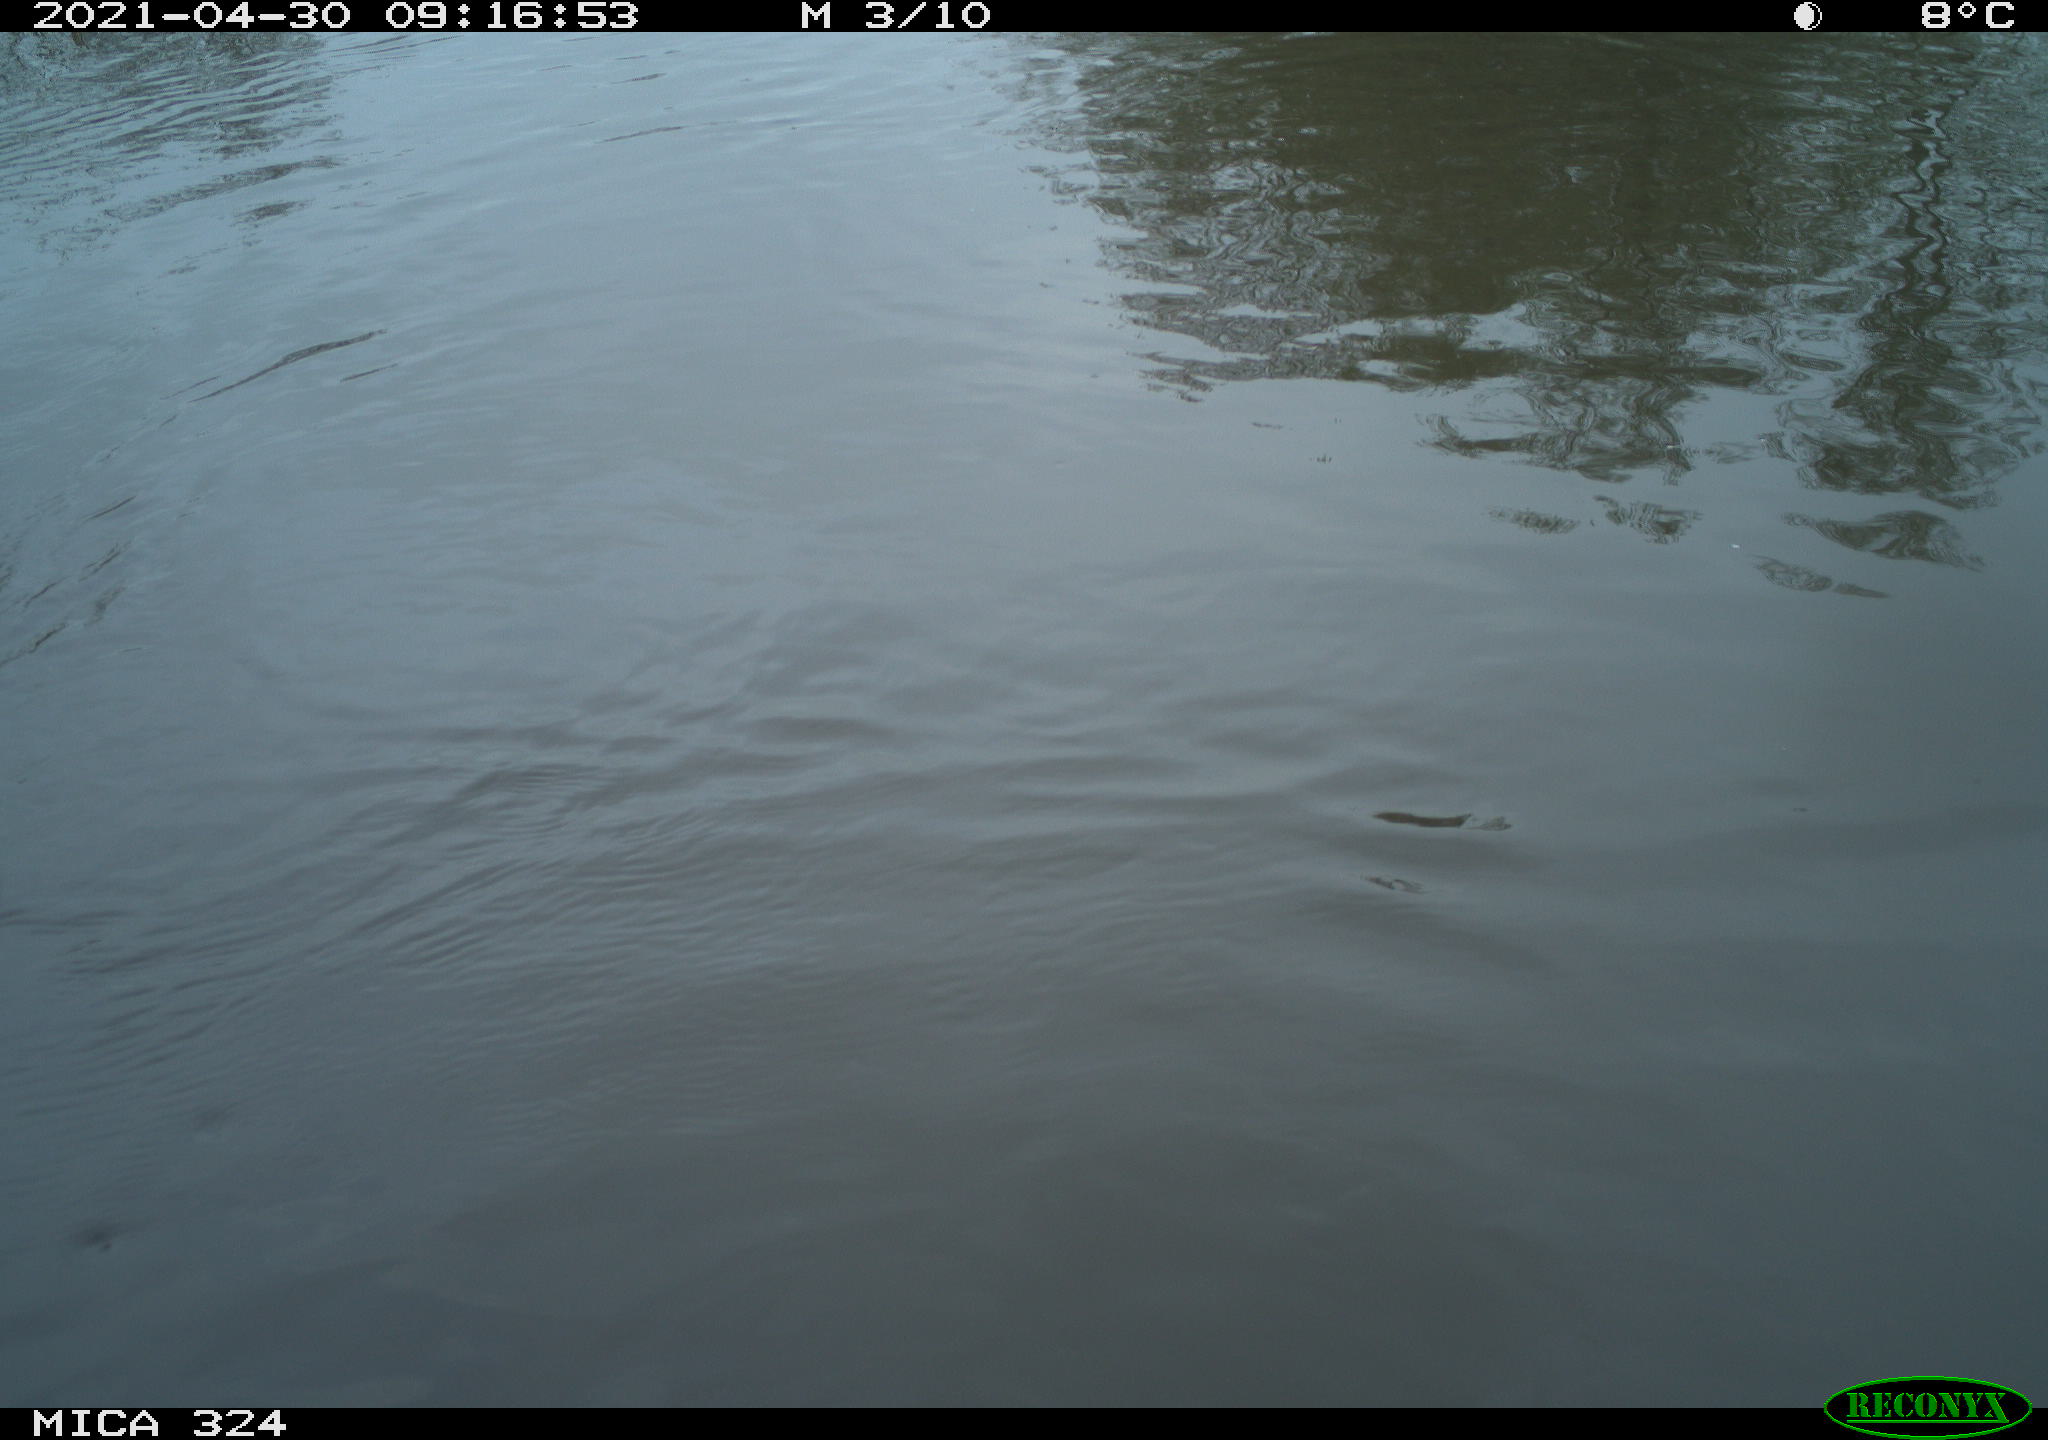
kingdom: Animalia
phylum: Chordata
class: Aves
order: Gruiformes
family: Rallidae
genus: Gallinula
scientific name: Gallinula chloropus
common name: Common moorhen
